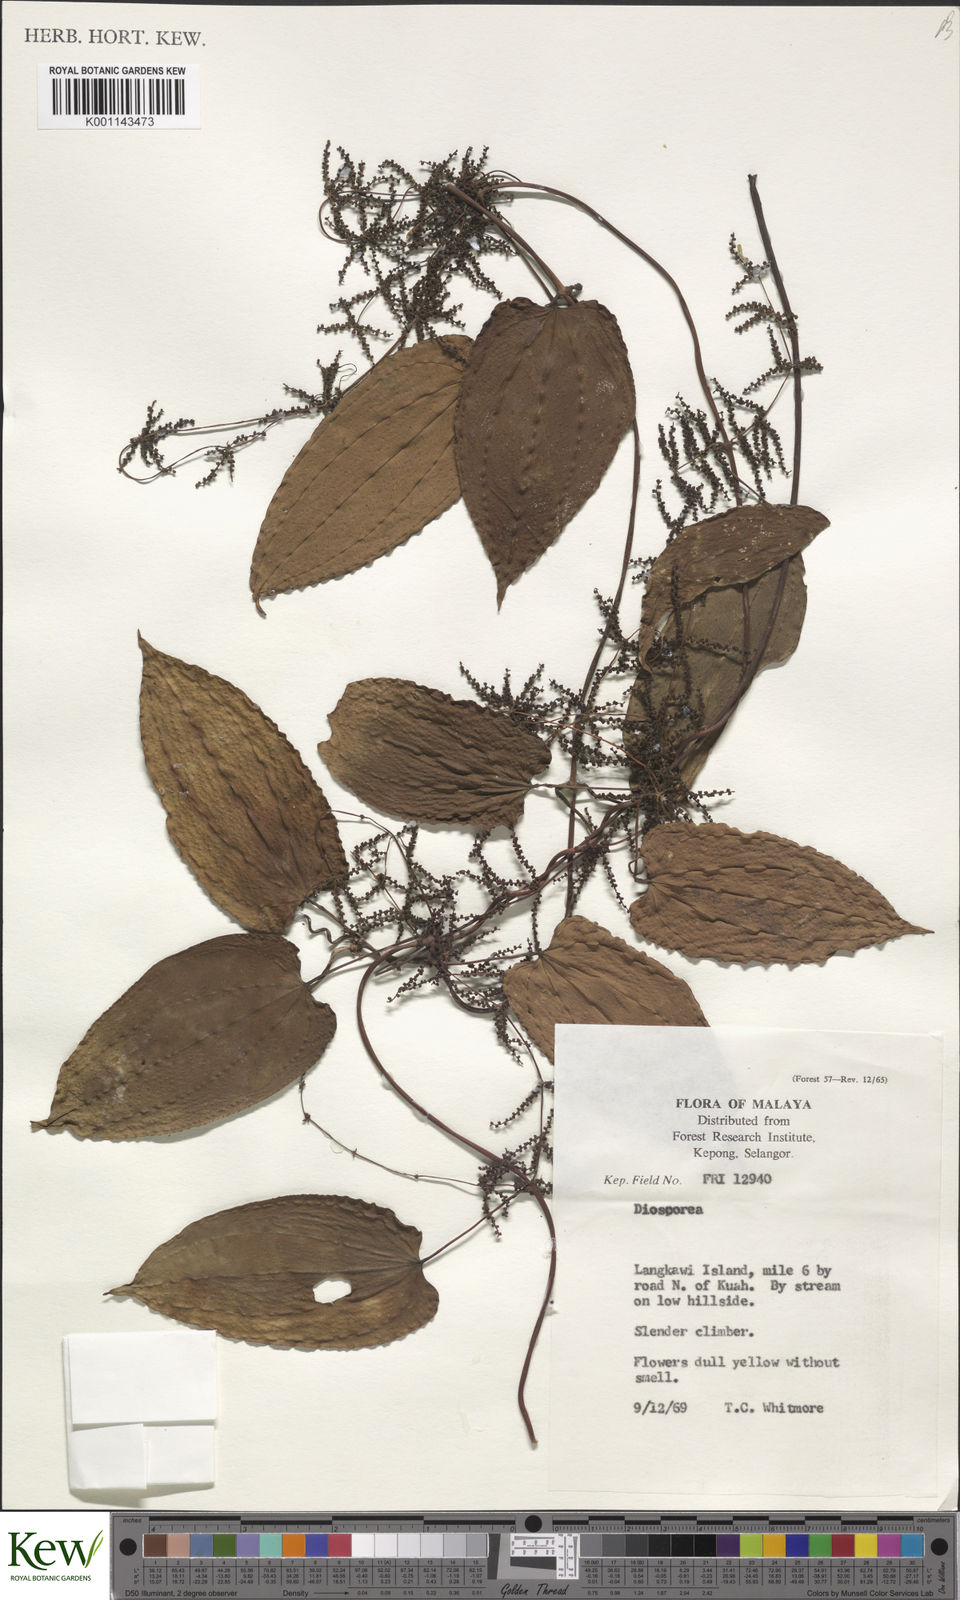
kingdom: Plantae
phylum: Tracheophyta
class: Liliopsida
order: Dioscoreales
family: Dioscoreaceae
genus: Dioscorea
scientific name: Dioscorea
